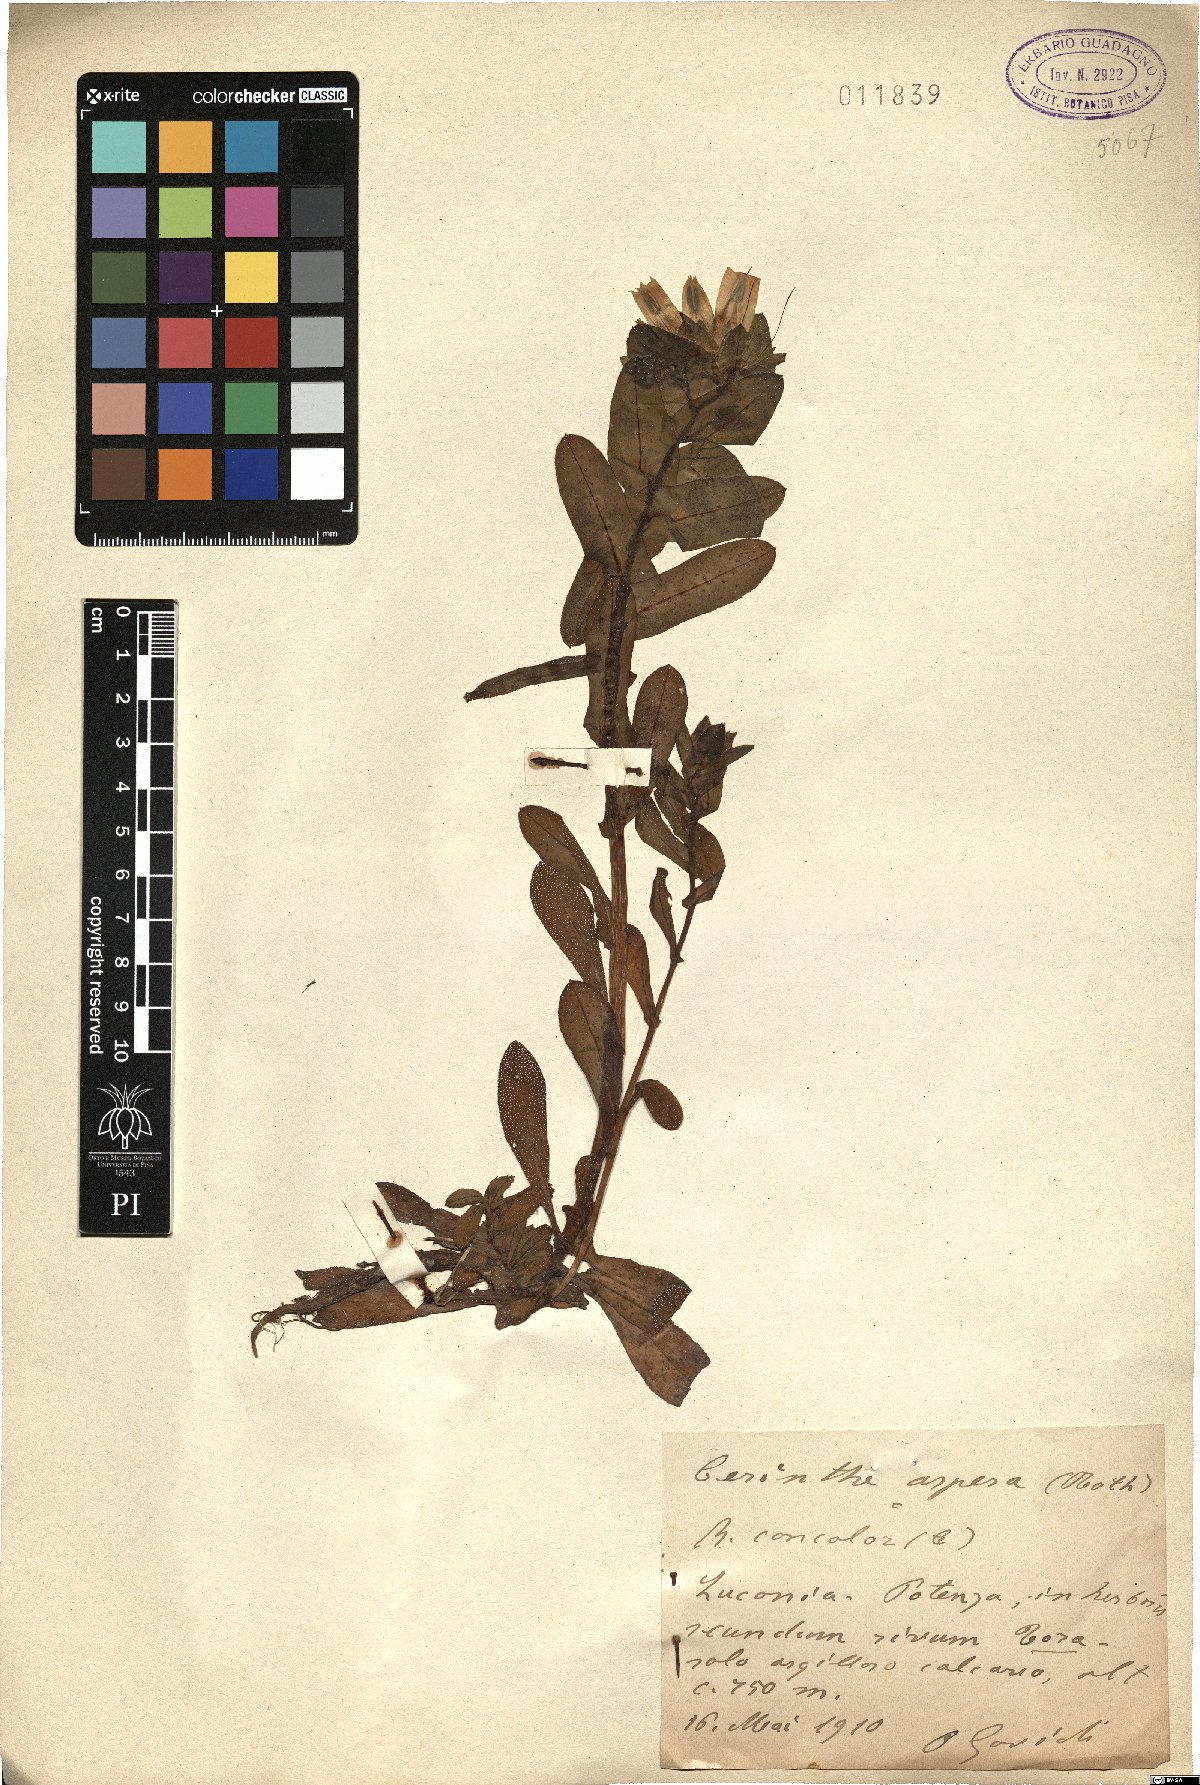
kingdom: Plantae
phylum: Tracheophyta
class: Magnoliopsida
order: Boraginales
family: Boraginaceae
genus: Cerinthe
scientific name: Cerinthe major
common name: Greater honeywort
